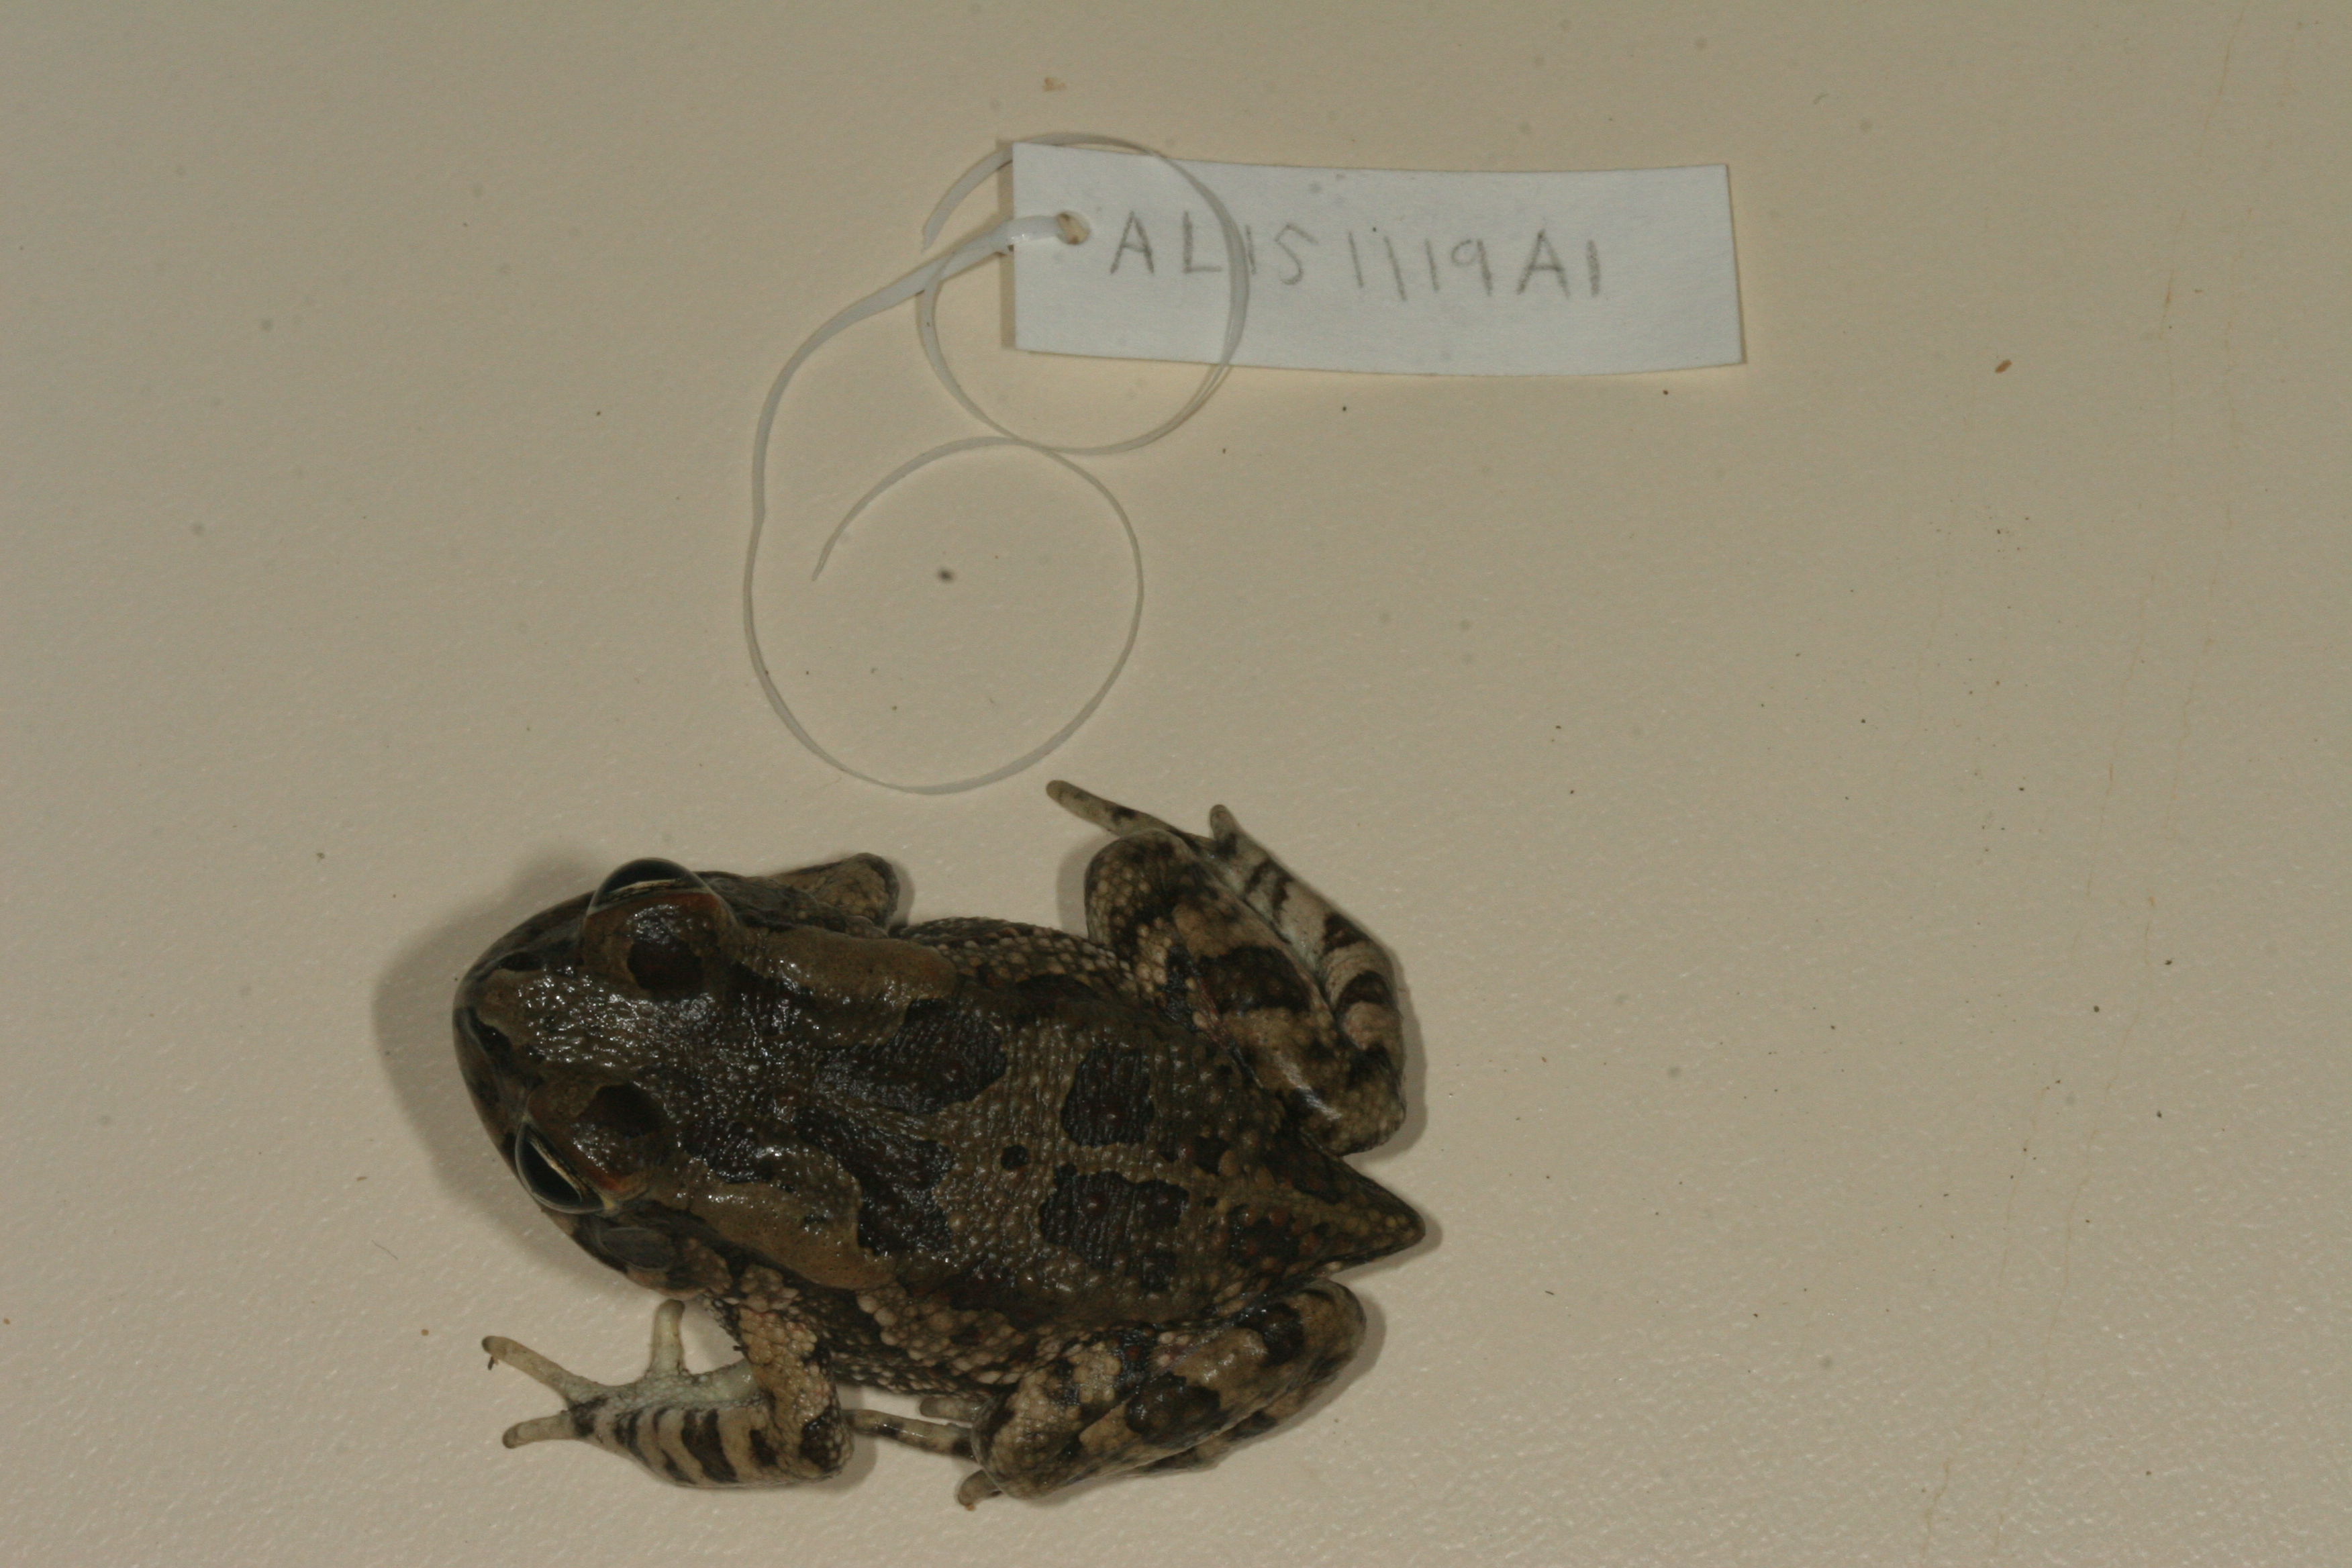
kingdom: Animalia
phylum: Chordata
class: Amphibia
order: Anura
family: Bufonidae
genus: Sclerophrys
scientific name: Sclerophrys garmani
